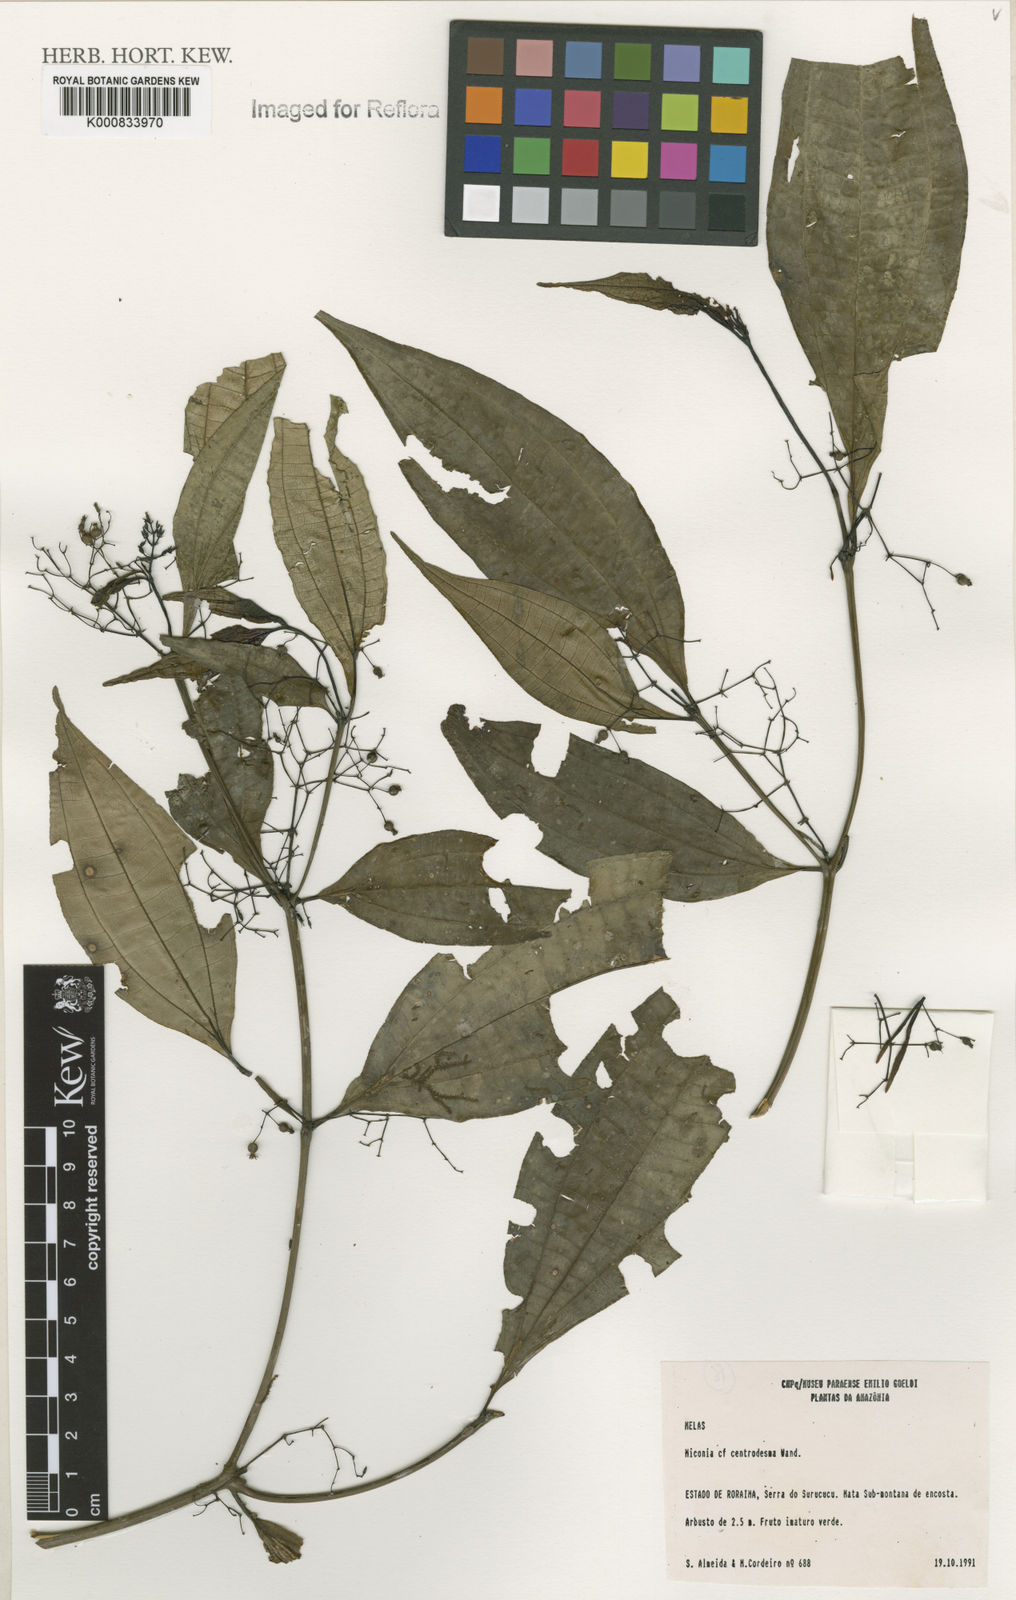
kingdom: Plantae
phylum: Tracheophyta
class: Magnoliopsida
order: Myrtales
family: Melastomataceae
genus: Miconia
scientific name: Miconia centrodesma
